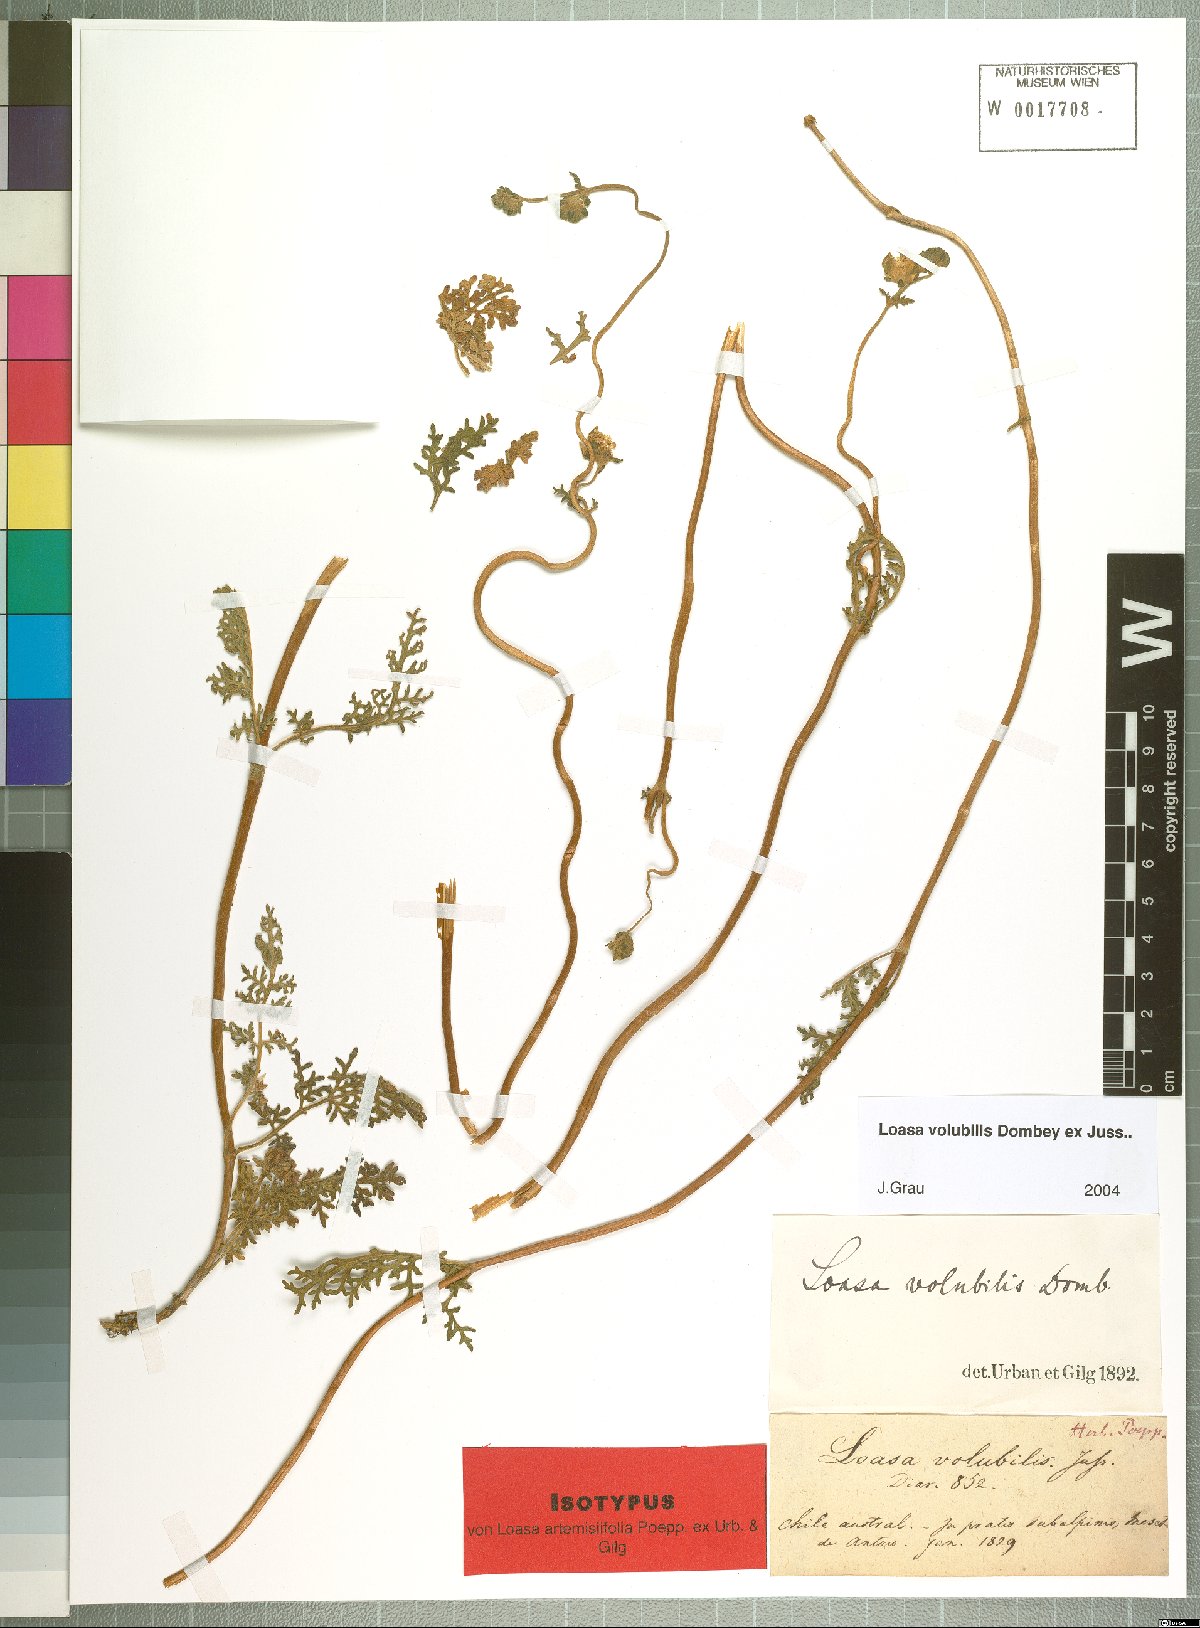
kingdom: Plantae
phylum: Tracheophyta
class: Magnoliopsida
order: Cornales
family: Loasaceae
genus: Pinnasa
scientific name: Pinnasa volubilis
